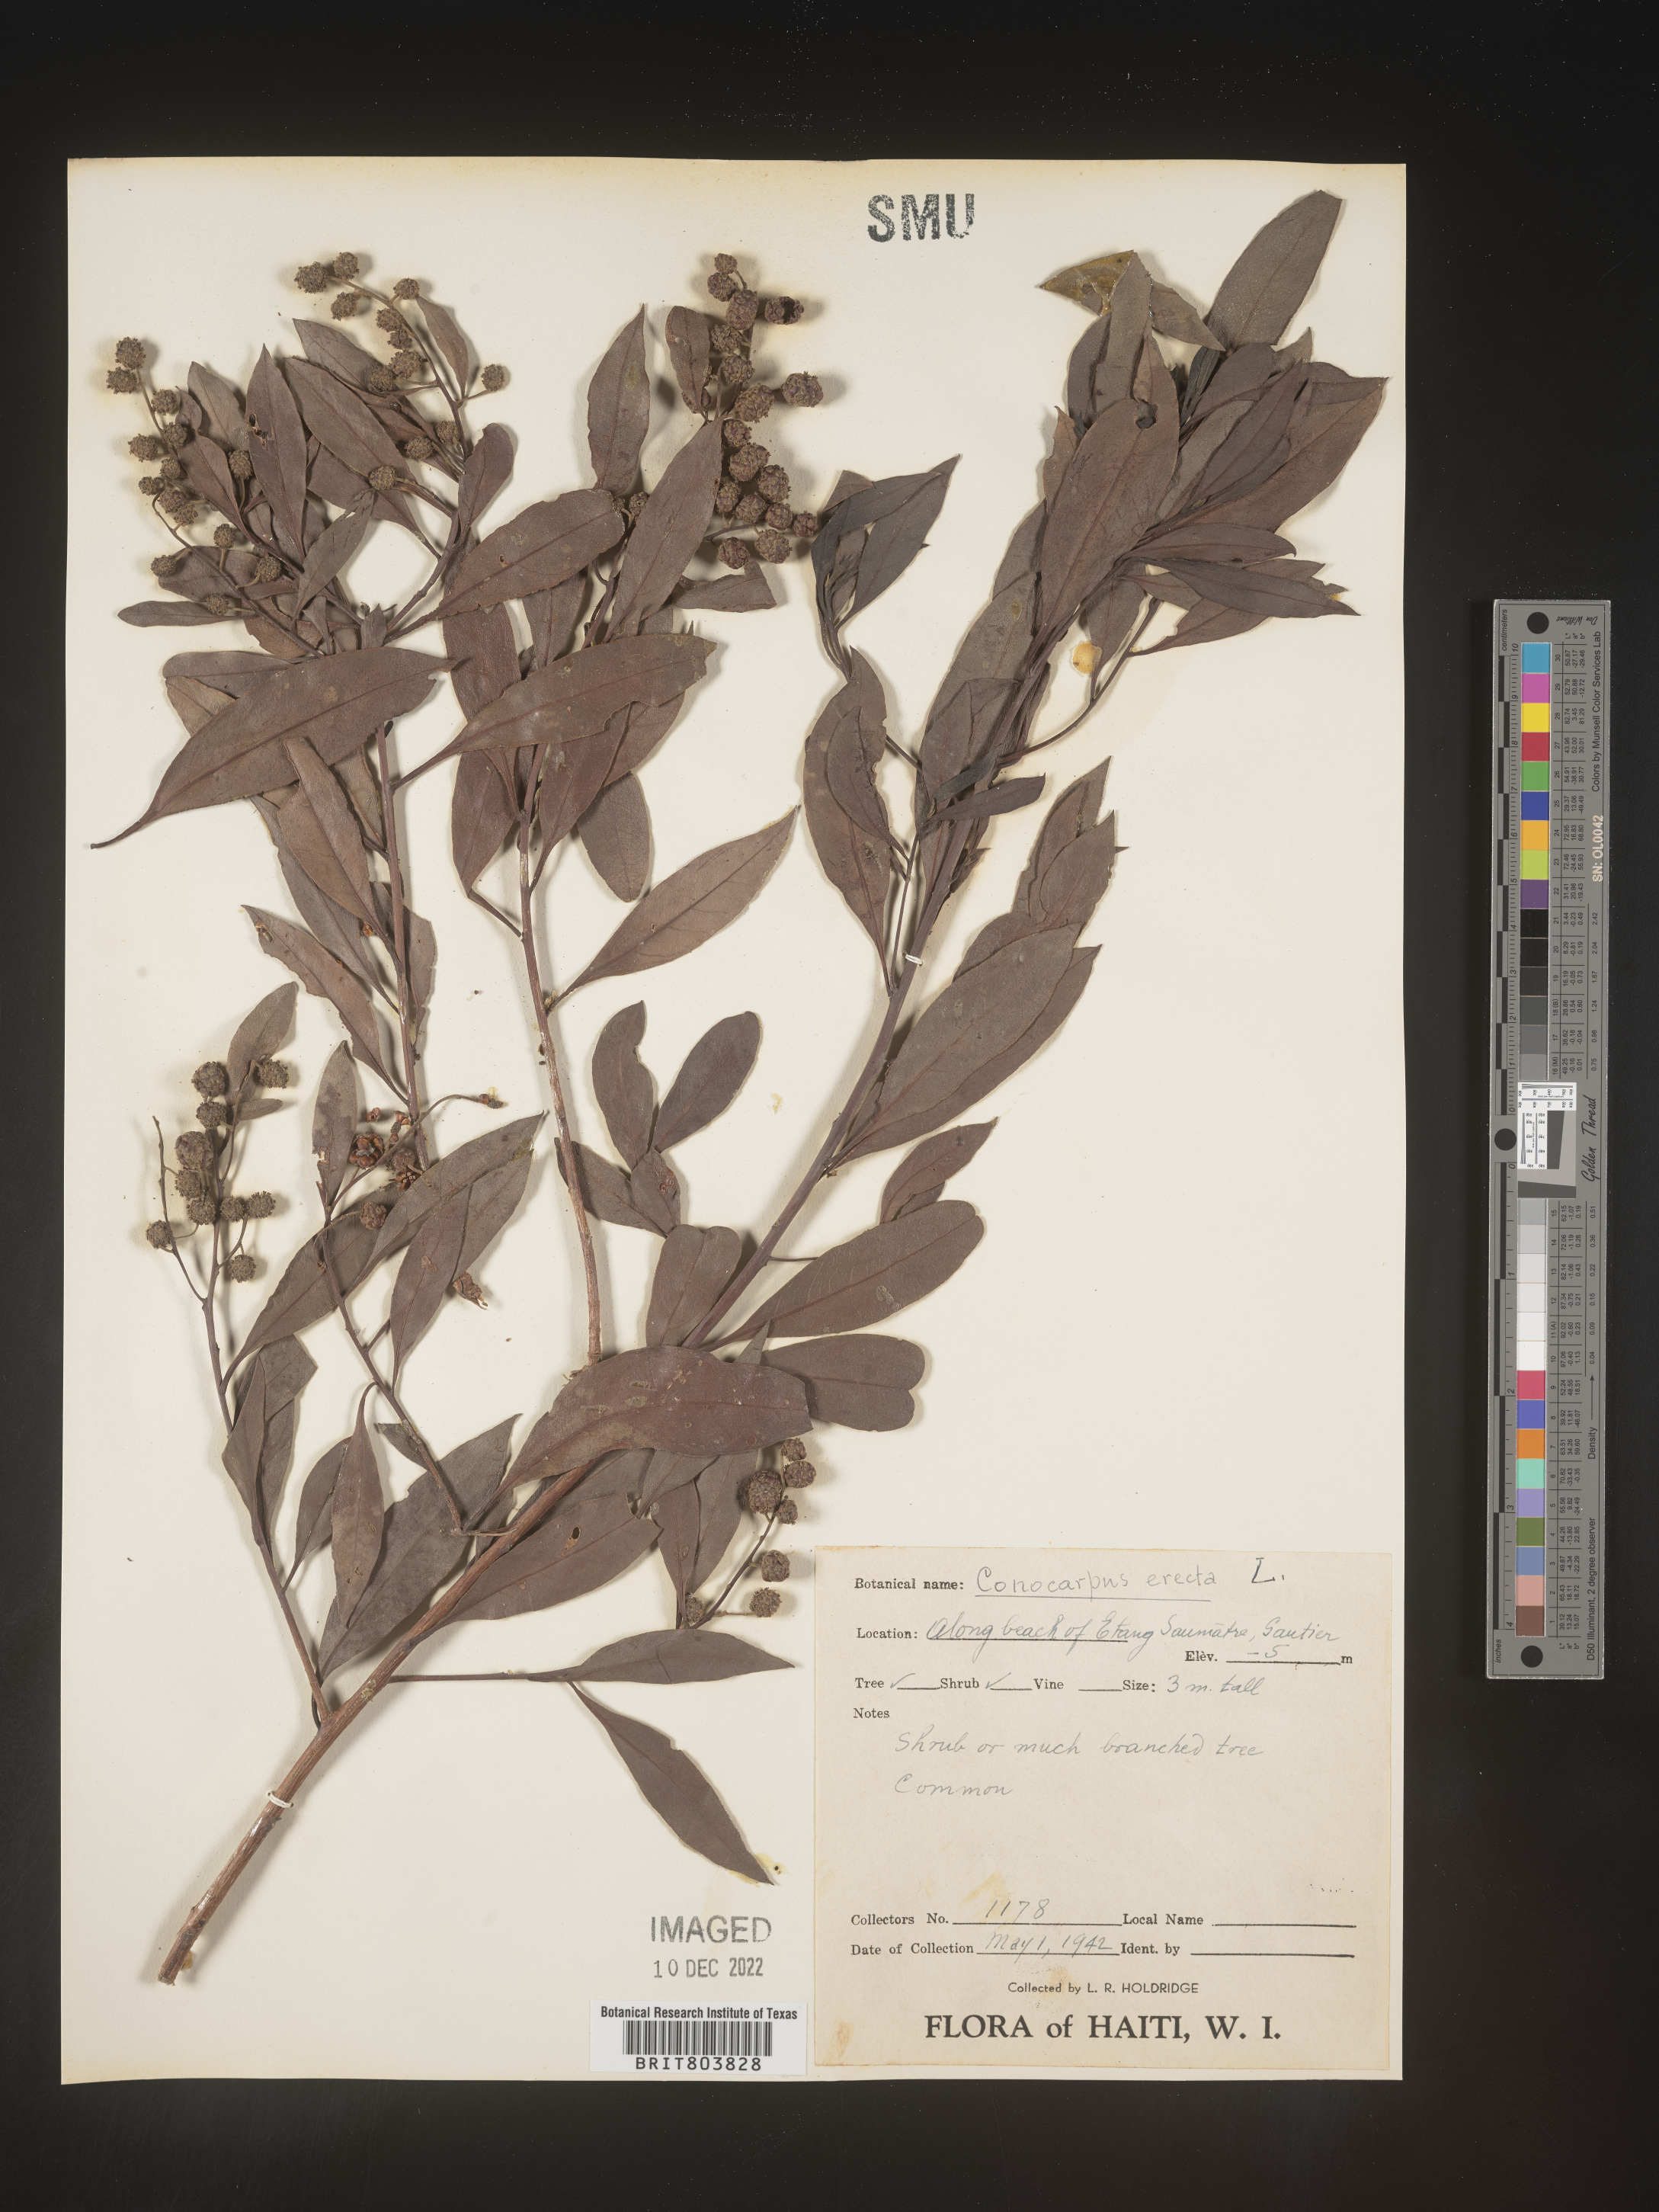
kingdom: Plantae
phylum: Tracheophyta
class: Magnoliopsida
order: Myrtales
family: Combretaceae
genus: Conocarpus
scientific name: Conocarpus
